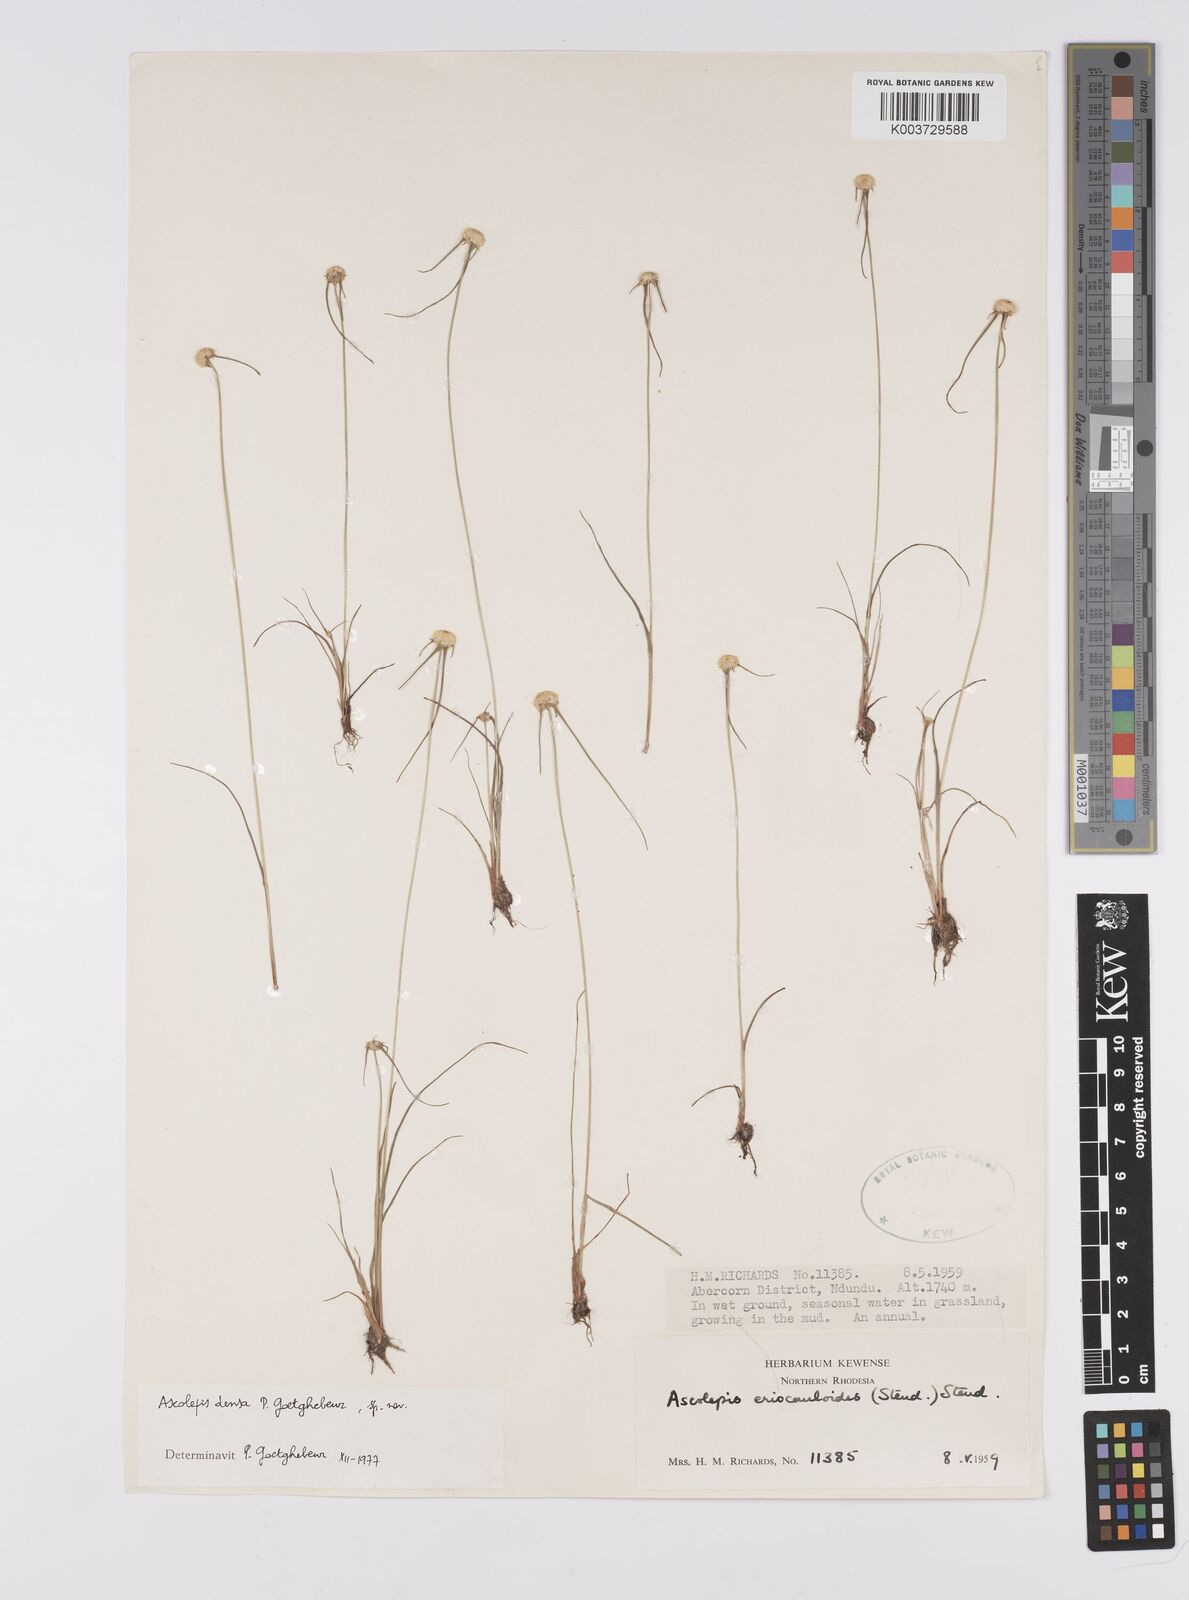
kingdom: Plantae
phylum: Tracheophyta
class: Liliopsida
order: Poales
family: Cyperaceae
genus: Cyperus
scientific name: Cyperus
